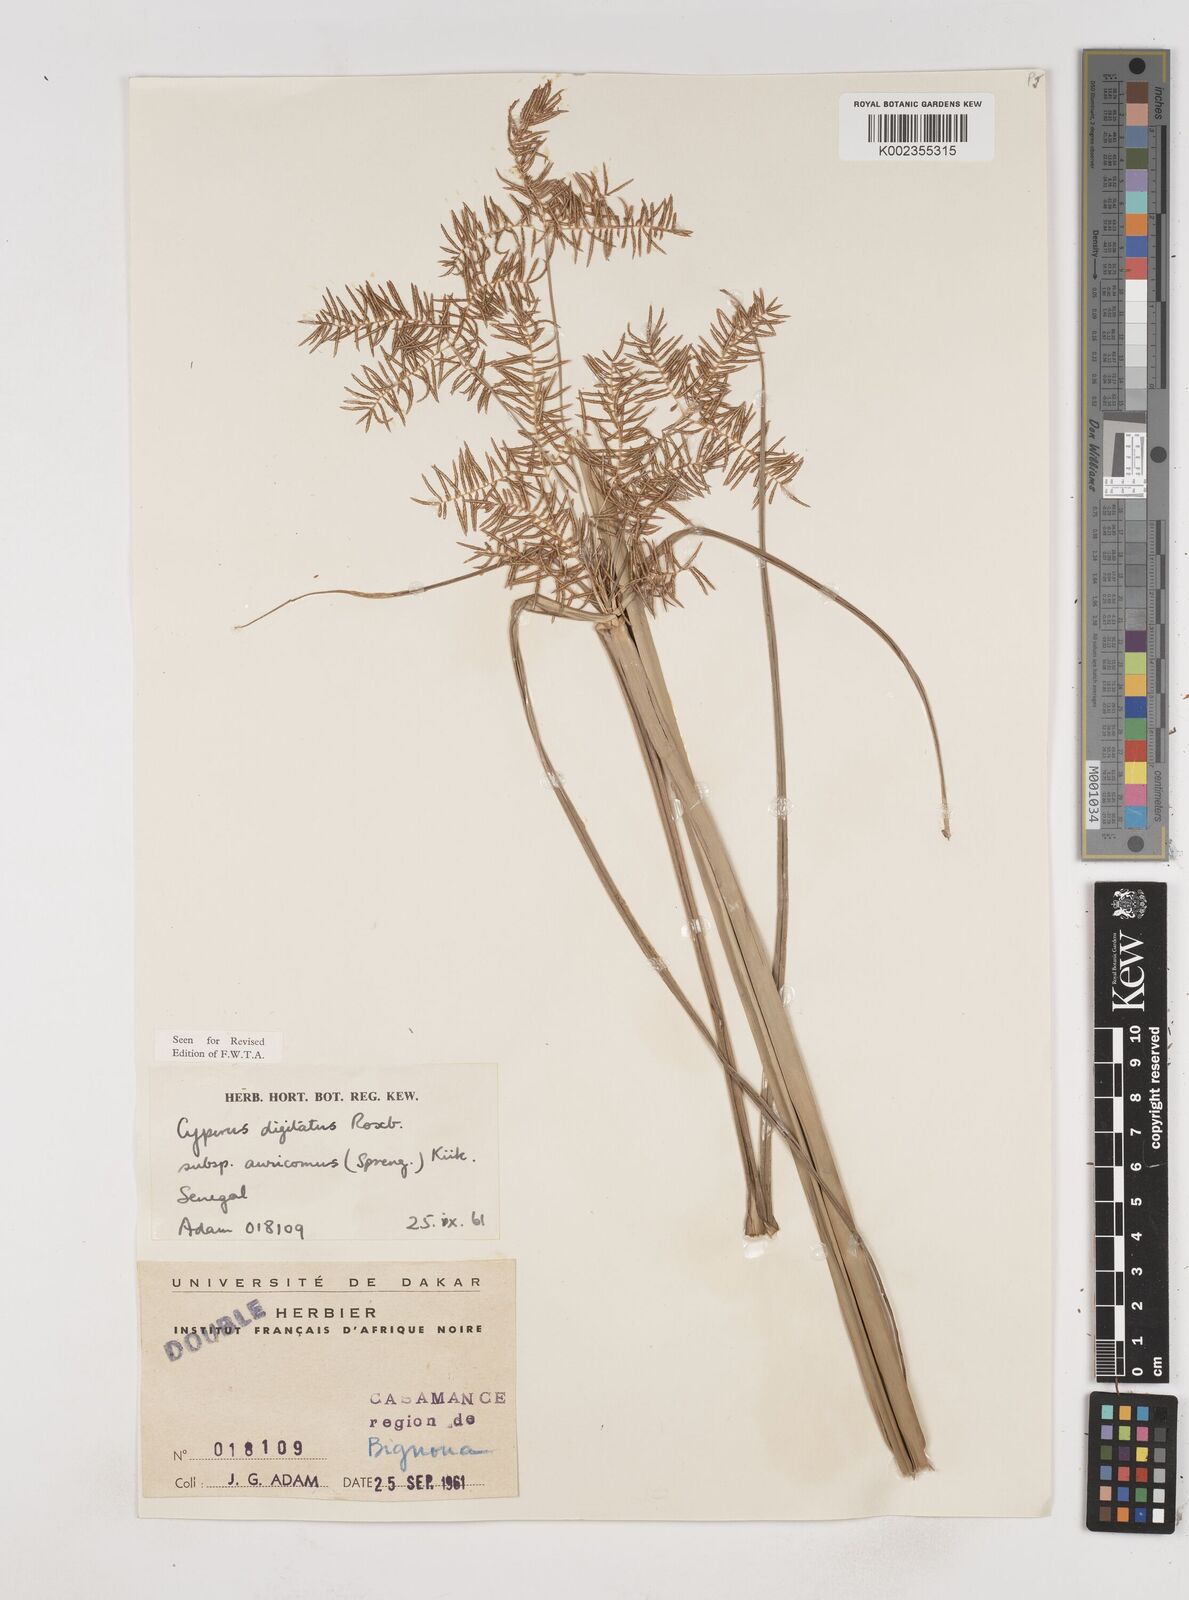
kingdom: Plantae
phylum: Tracheophyta
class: Liliopsida
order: Poales
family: Cyperaceae
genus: Cyperus
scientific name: Cyperus digitatus
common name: Finger flatsedge
